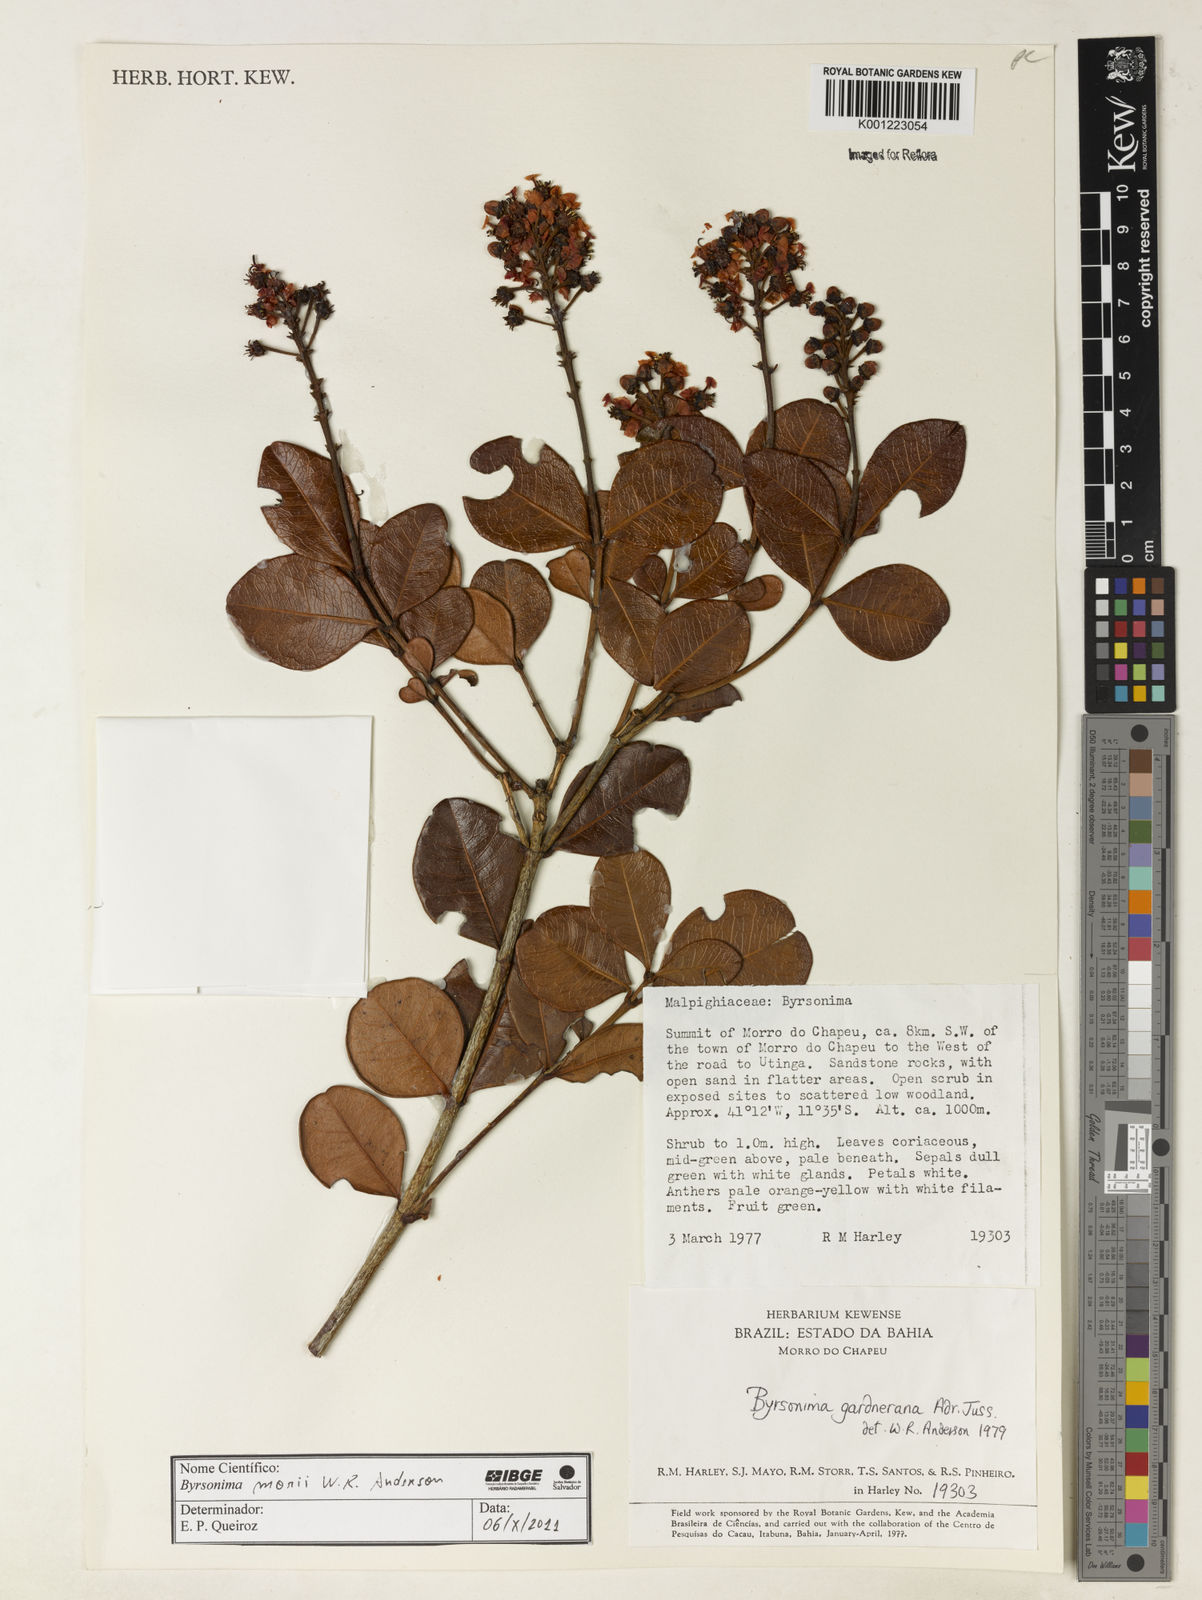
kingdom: Plantae
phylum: Tracheophyta
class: Magnoliopsida
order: Malpighiales
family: Malpighiaceae
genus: Byrsonima
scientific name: Byrsonima morii
